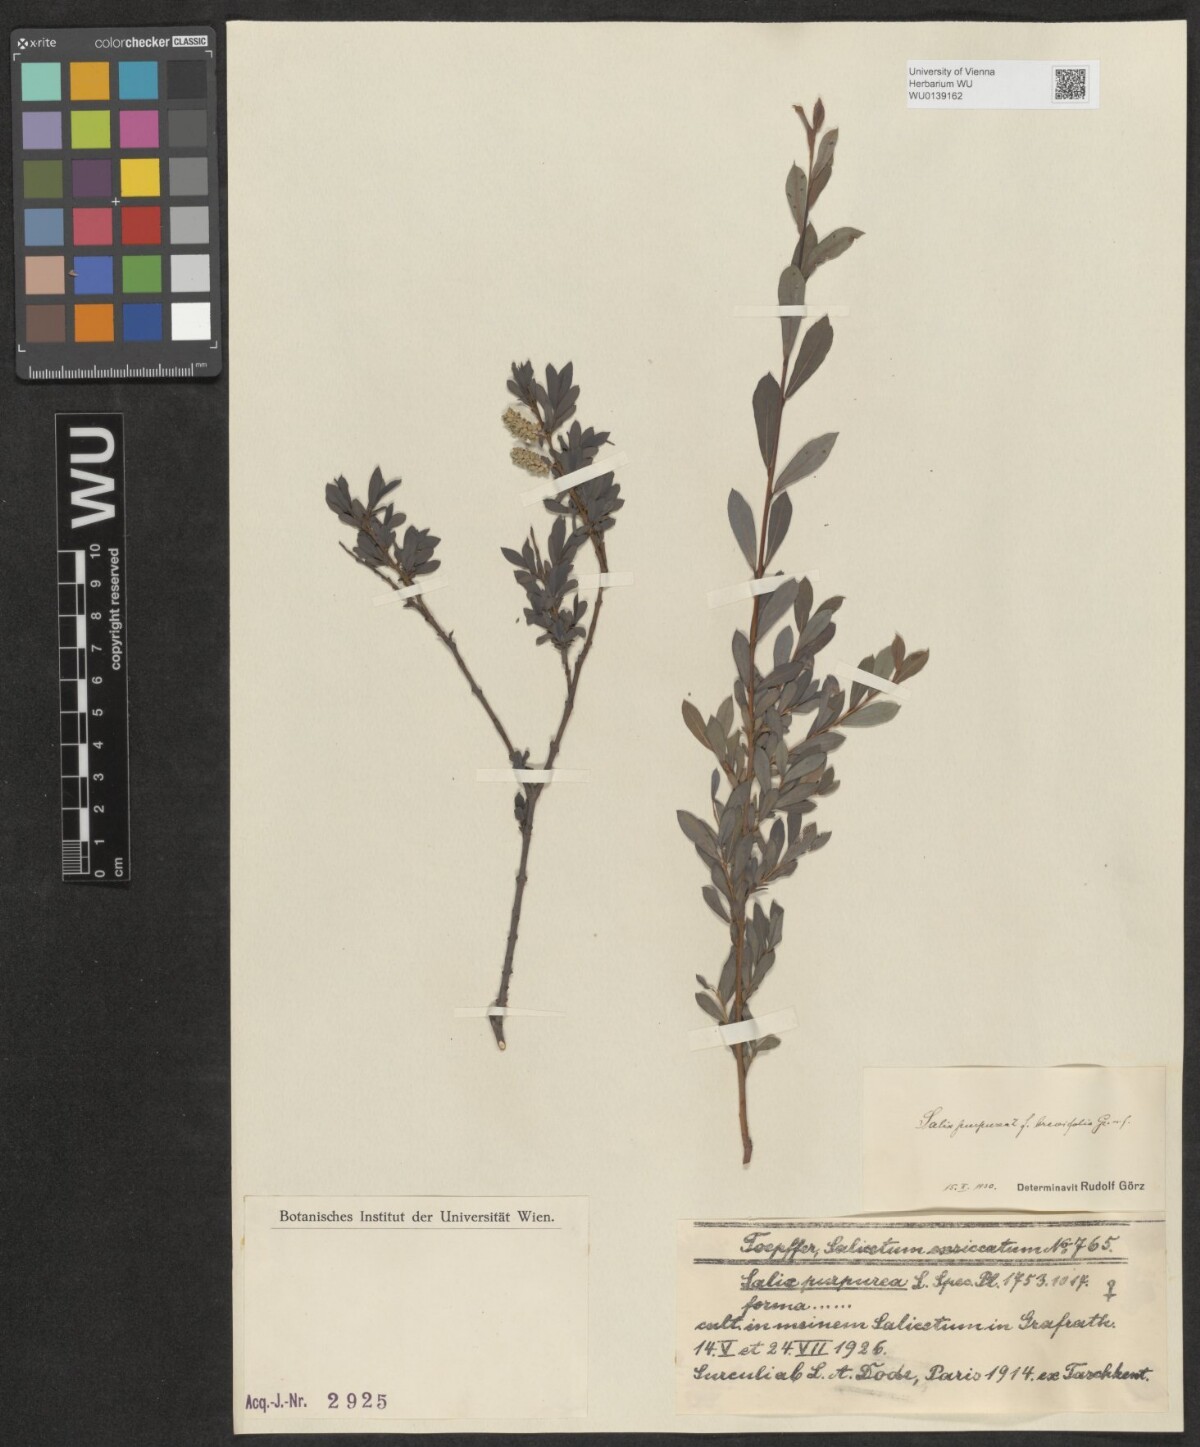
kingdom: Plantae
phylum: Tracheophyta
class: Magnoliopsida
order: Malpighiales
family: Salicaceae
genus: Salix
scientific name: Salix purpurea
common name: Purple willow
